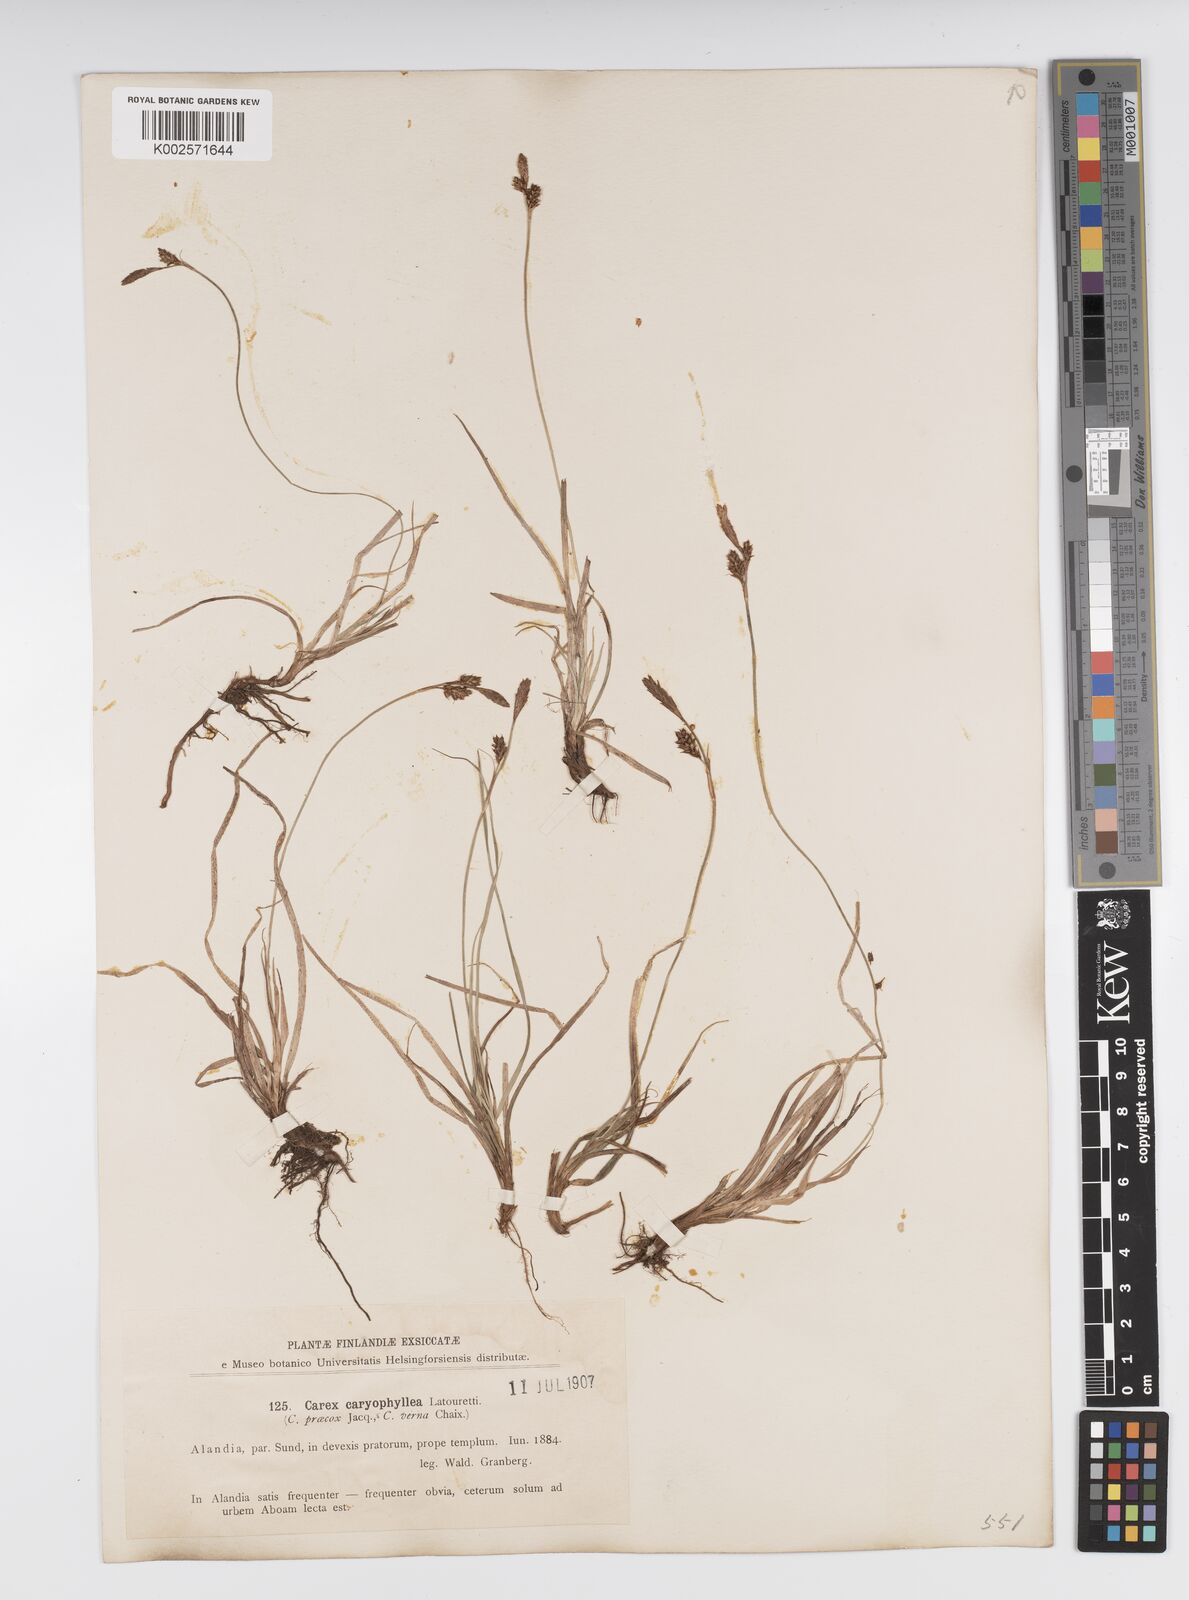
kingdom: Plantae
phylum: Tracheophyta
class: Liliopsida
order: Poales
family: Cyperaceae
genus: Carex
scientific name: Carex caryophyllea
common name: Spring sedge
